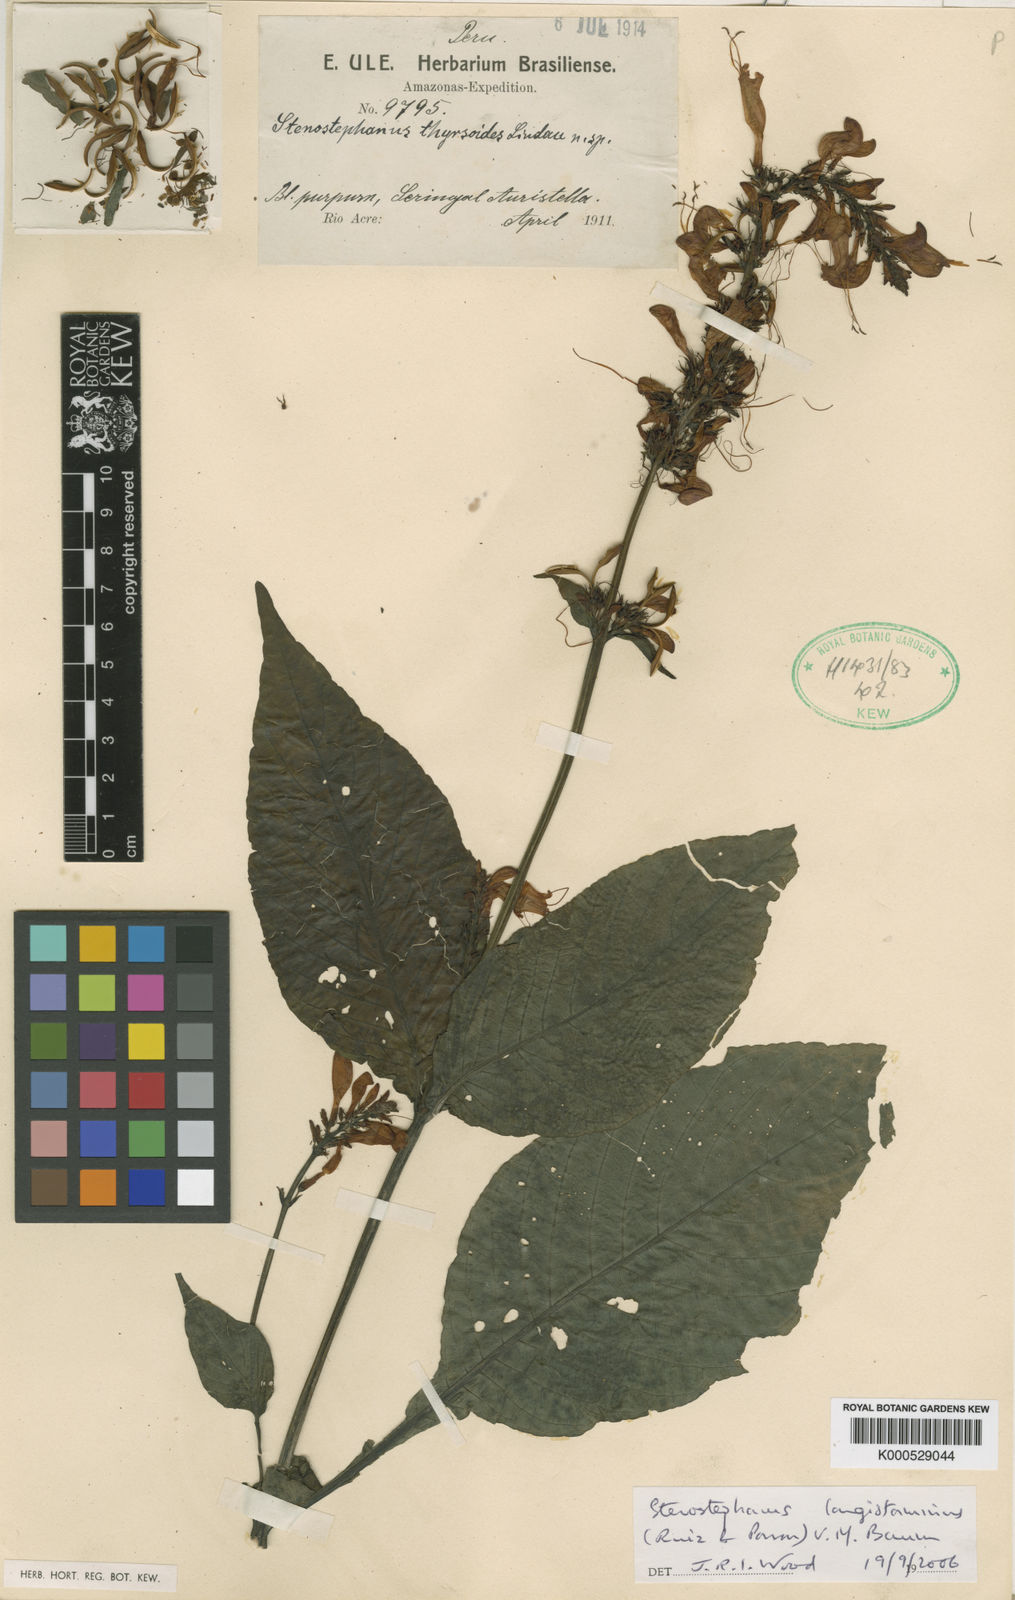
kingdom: Plantae
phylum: Tracheophyta
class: Magnoliopsida
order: Lamiales
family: Acanthaceae
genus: Stenostephanus
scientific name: Stenostephanus longistaminus
